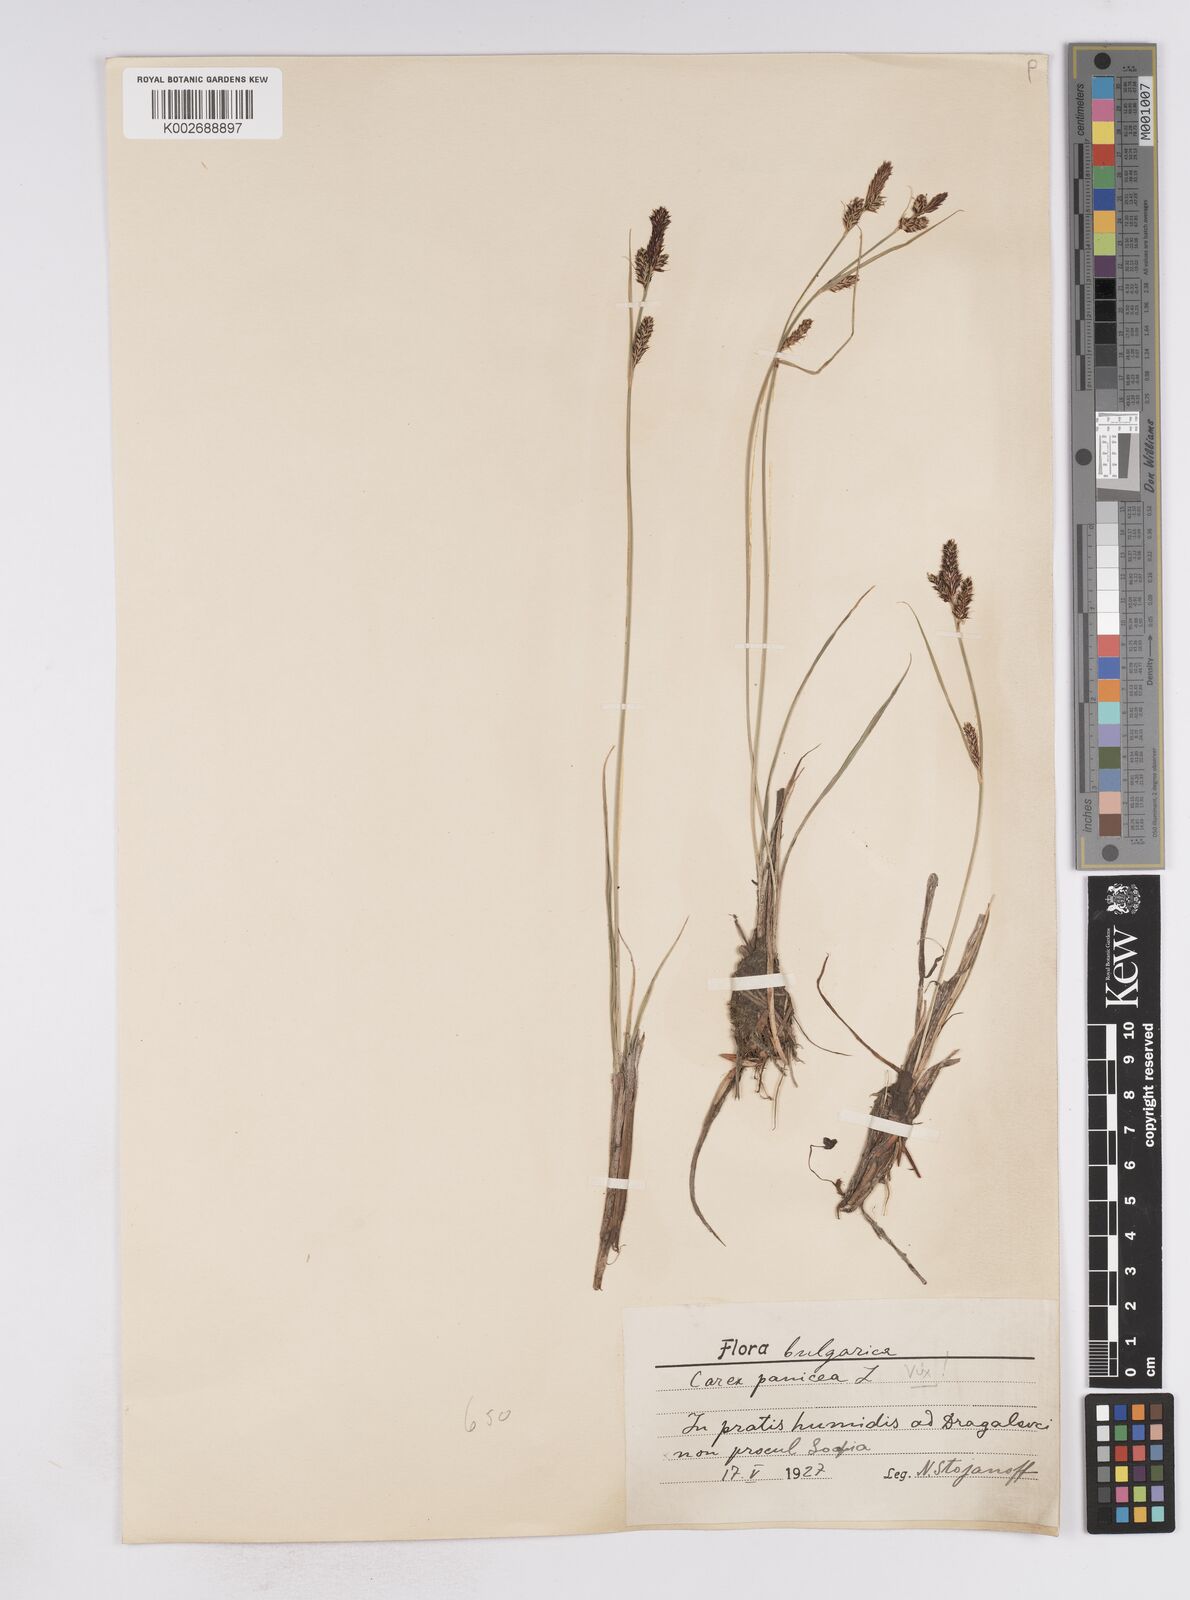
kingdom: Plantae
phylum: Tracheophyta
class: Liliopsida
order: Poales
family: Cyperaceae
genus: Carex
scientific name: Carex buxbaumii
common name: Club sedge
